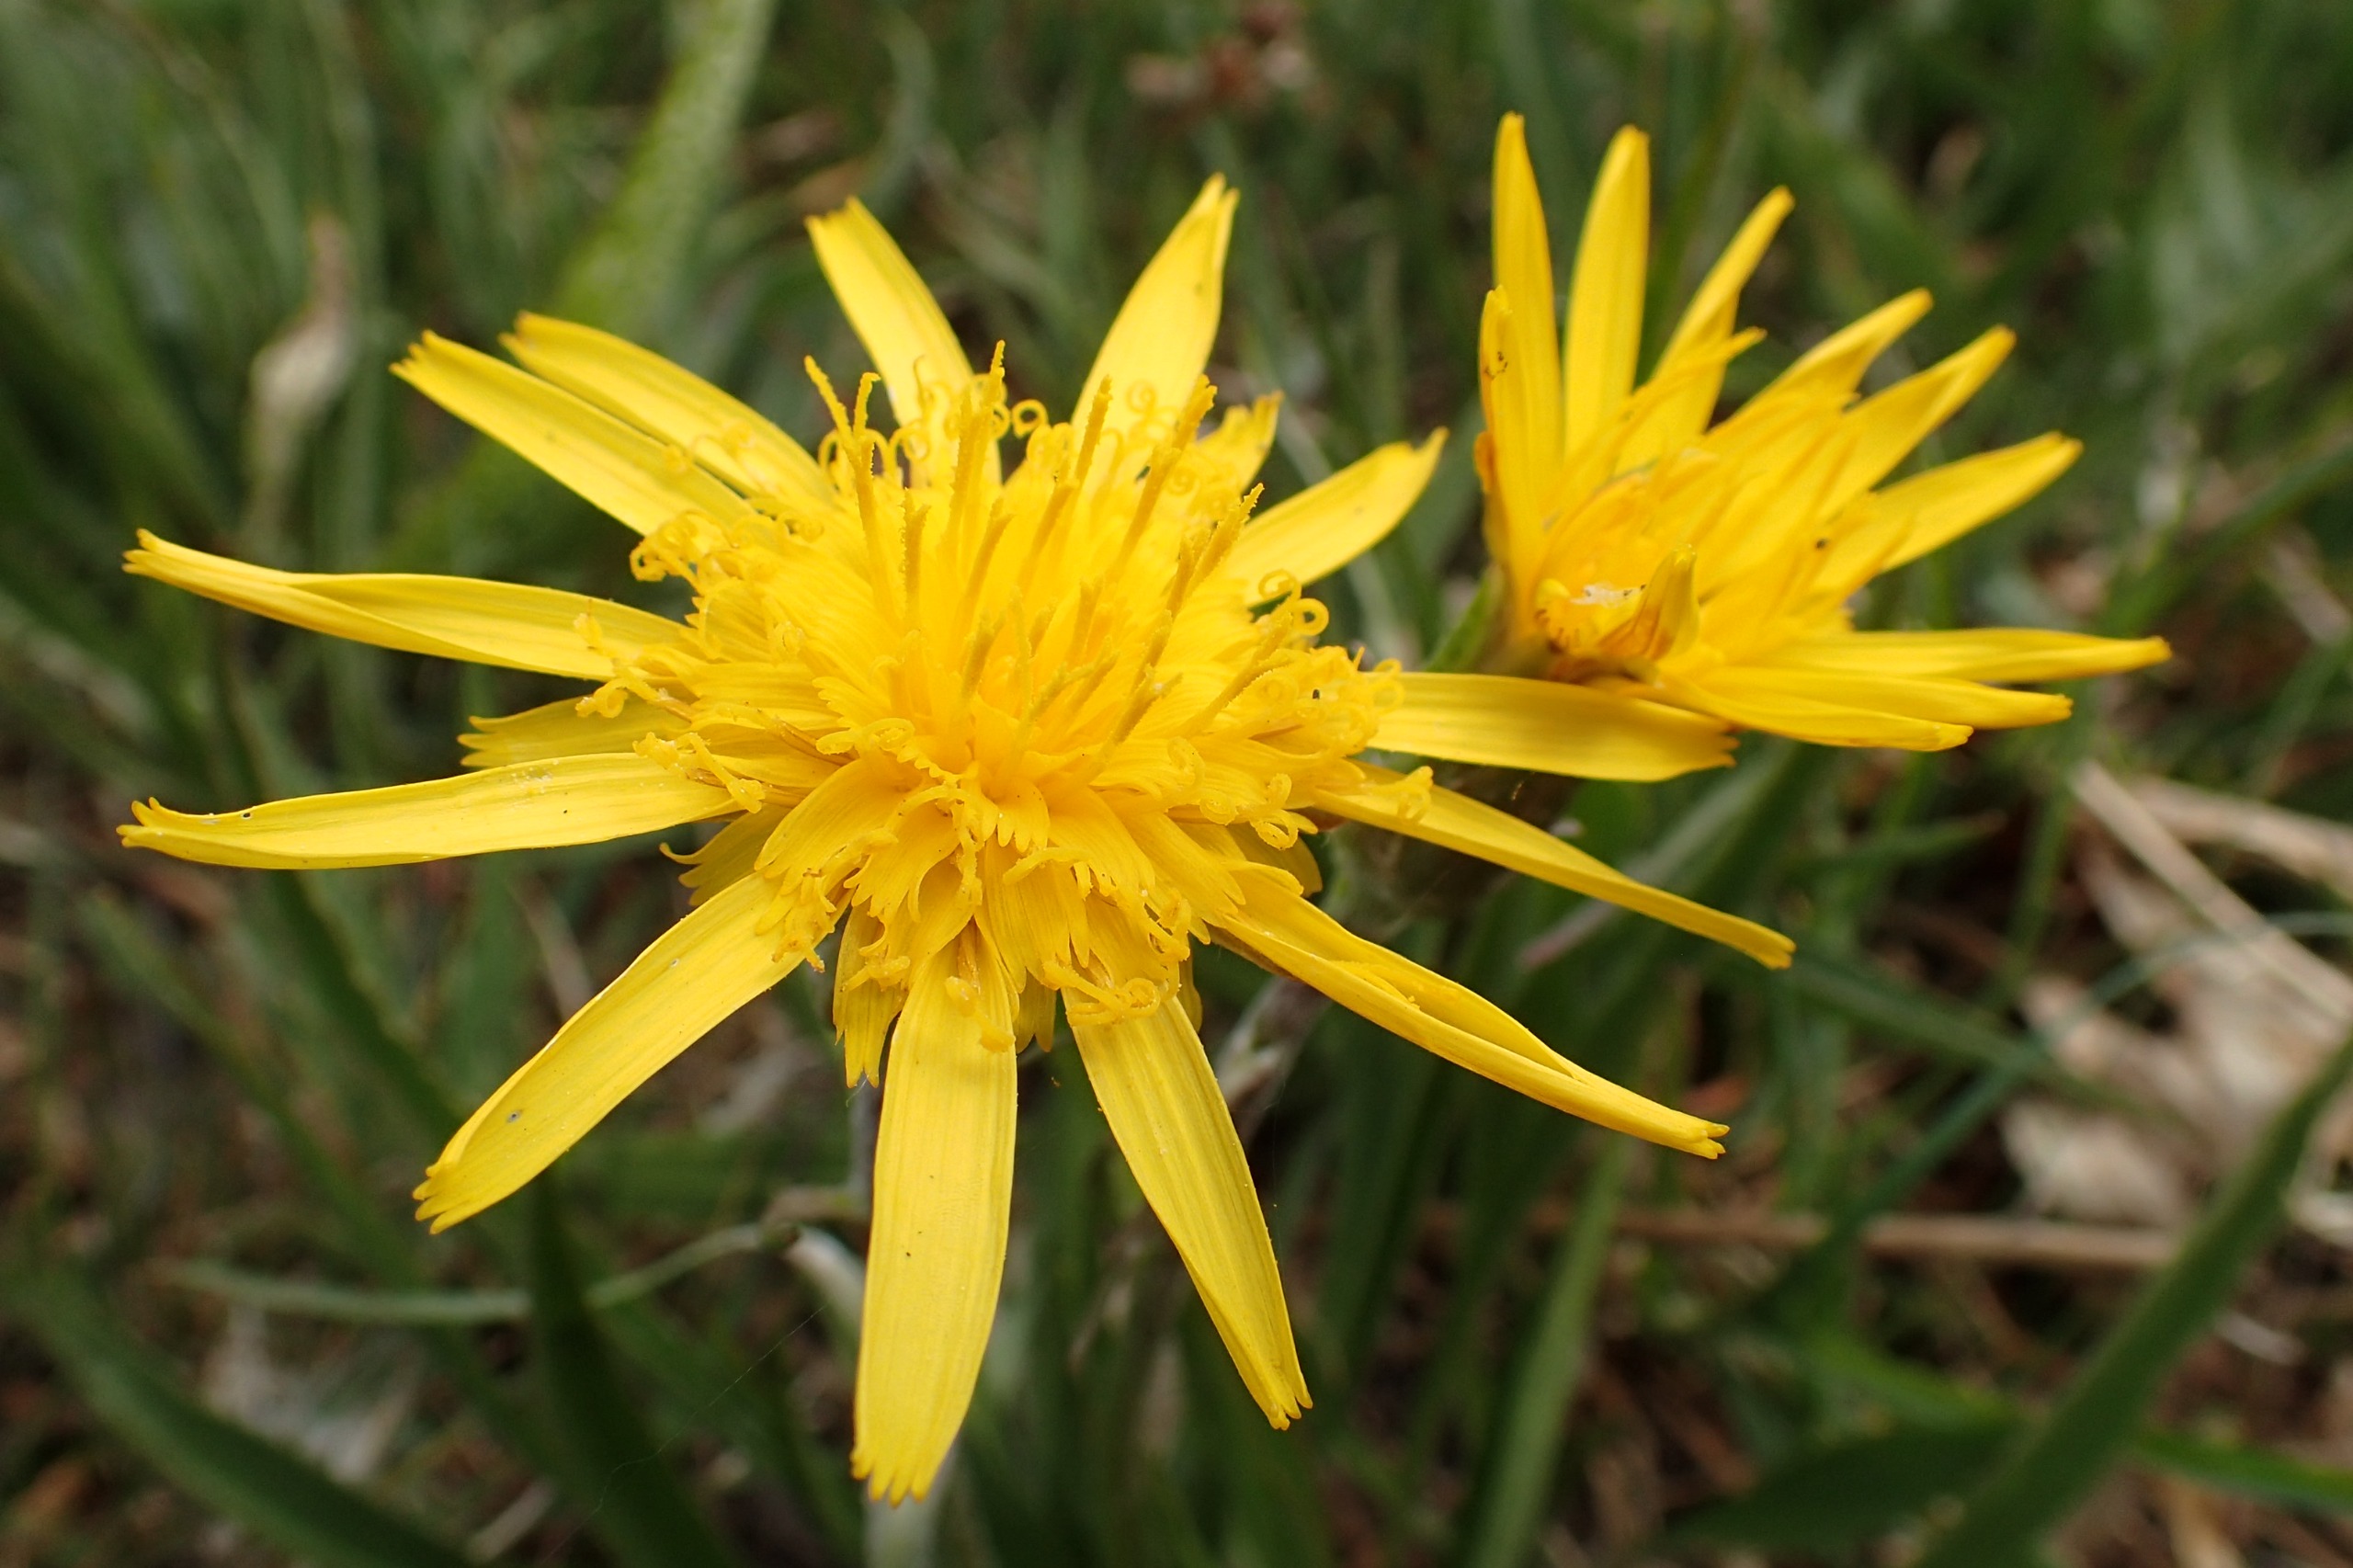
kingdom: Plantae
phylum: Tracheophyta
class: Magnoliopsida
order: Asterales
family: Asteraceae
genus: Scorzonera
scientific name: Scorzonera humilis
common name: Lav skorsoner
